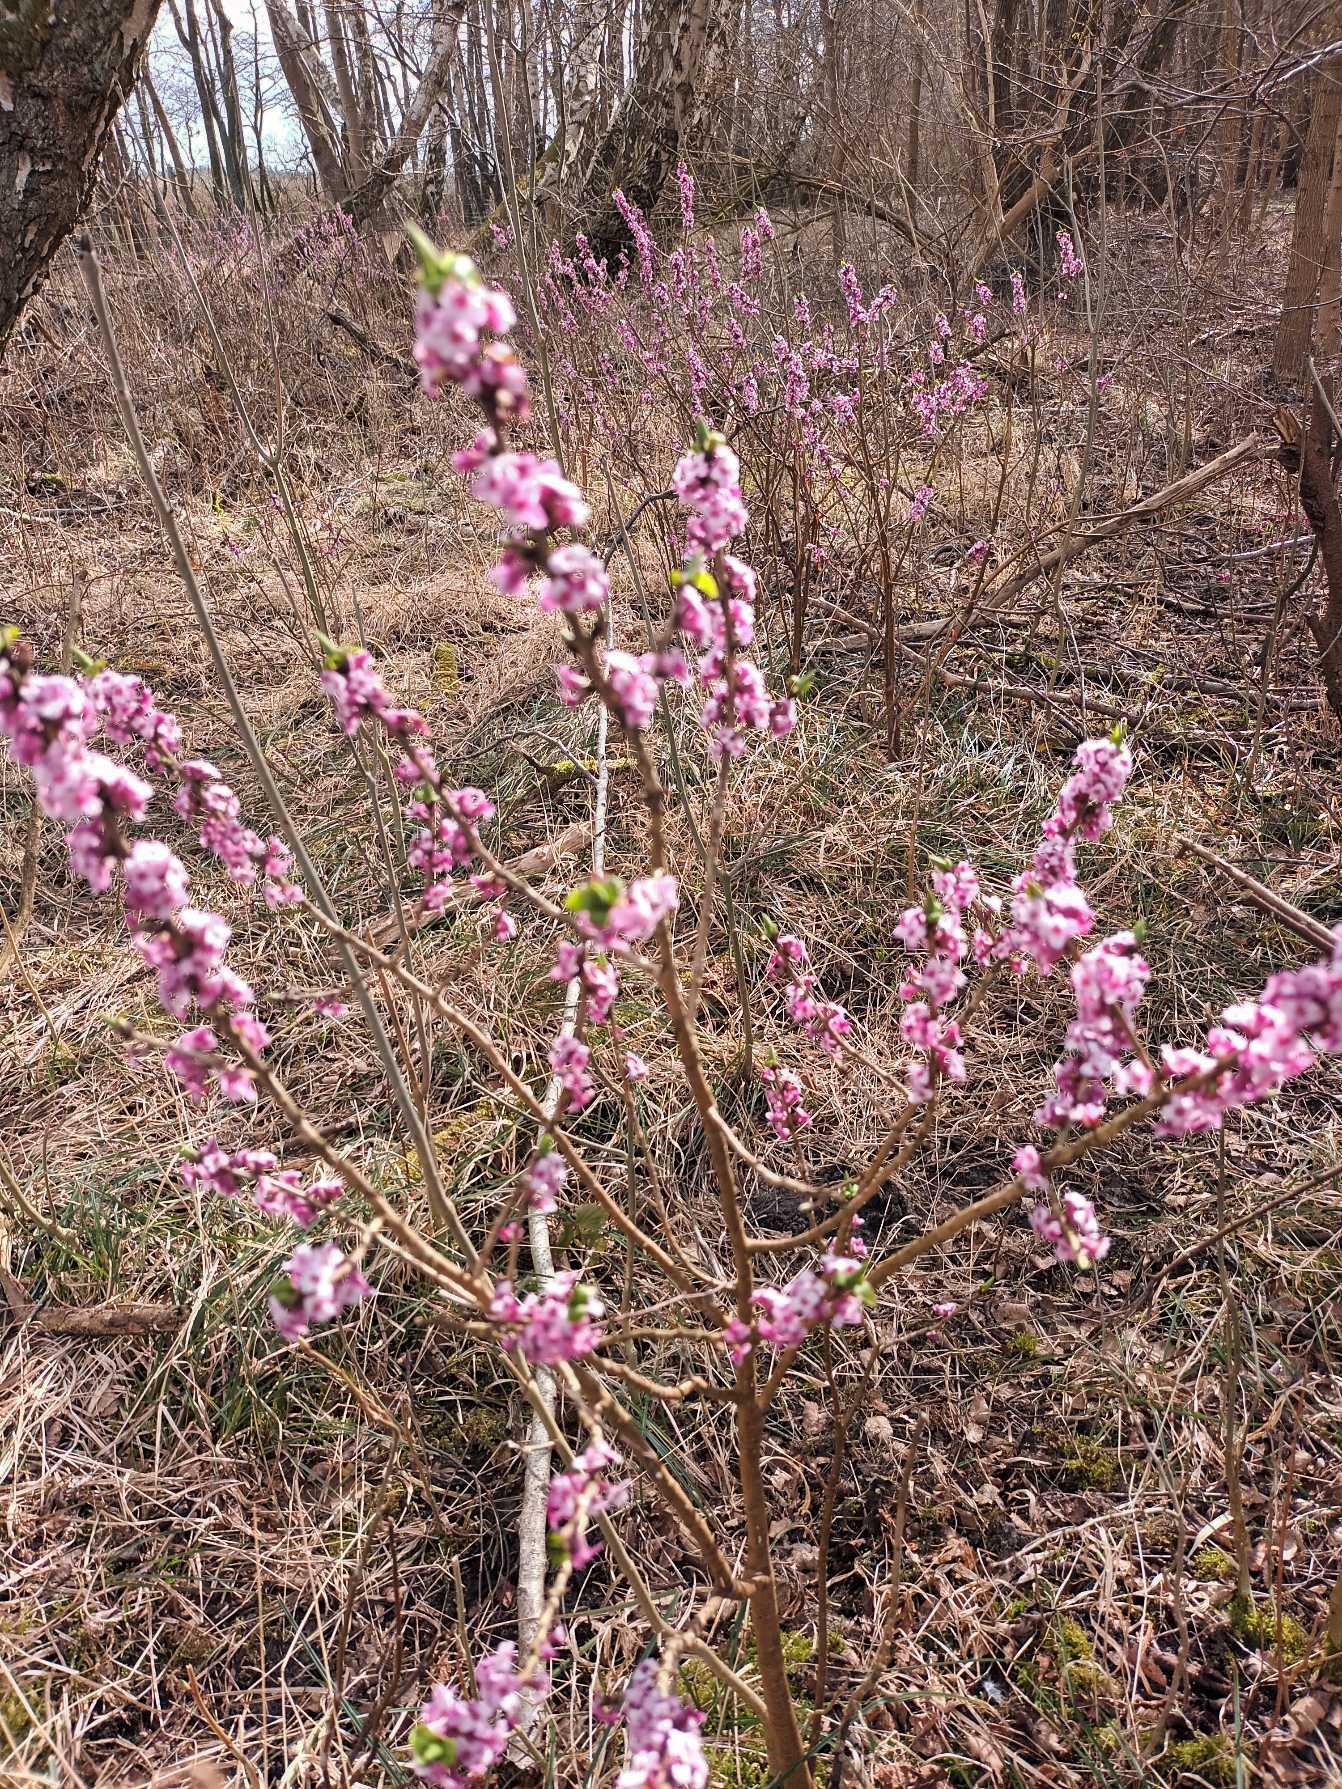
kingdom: Plantae
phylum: Tracheophyta
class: Magnoliopsida
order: Malvales
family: Thymelaeaceae
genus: Daphne
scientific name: Daphne mezereum
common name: Pebertræ
